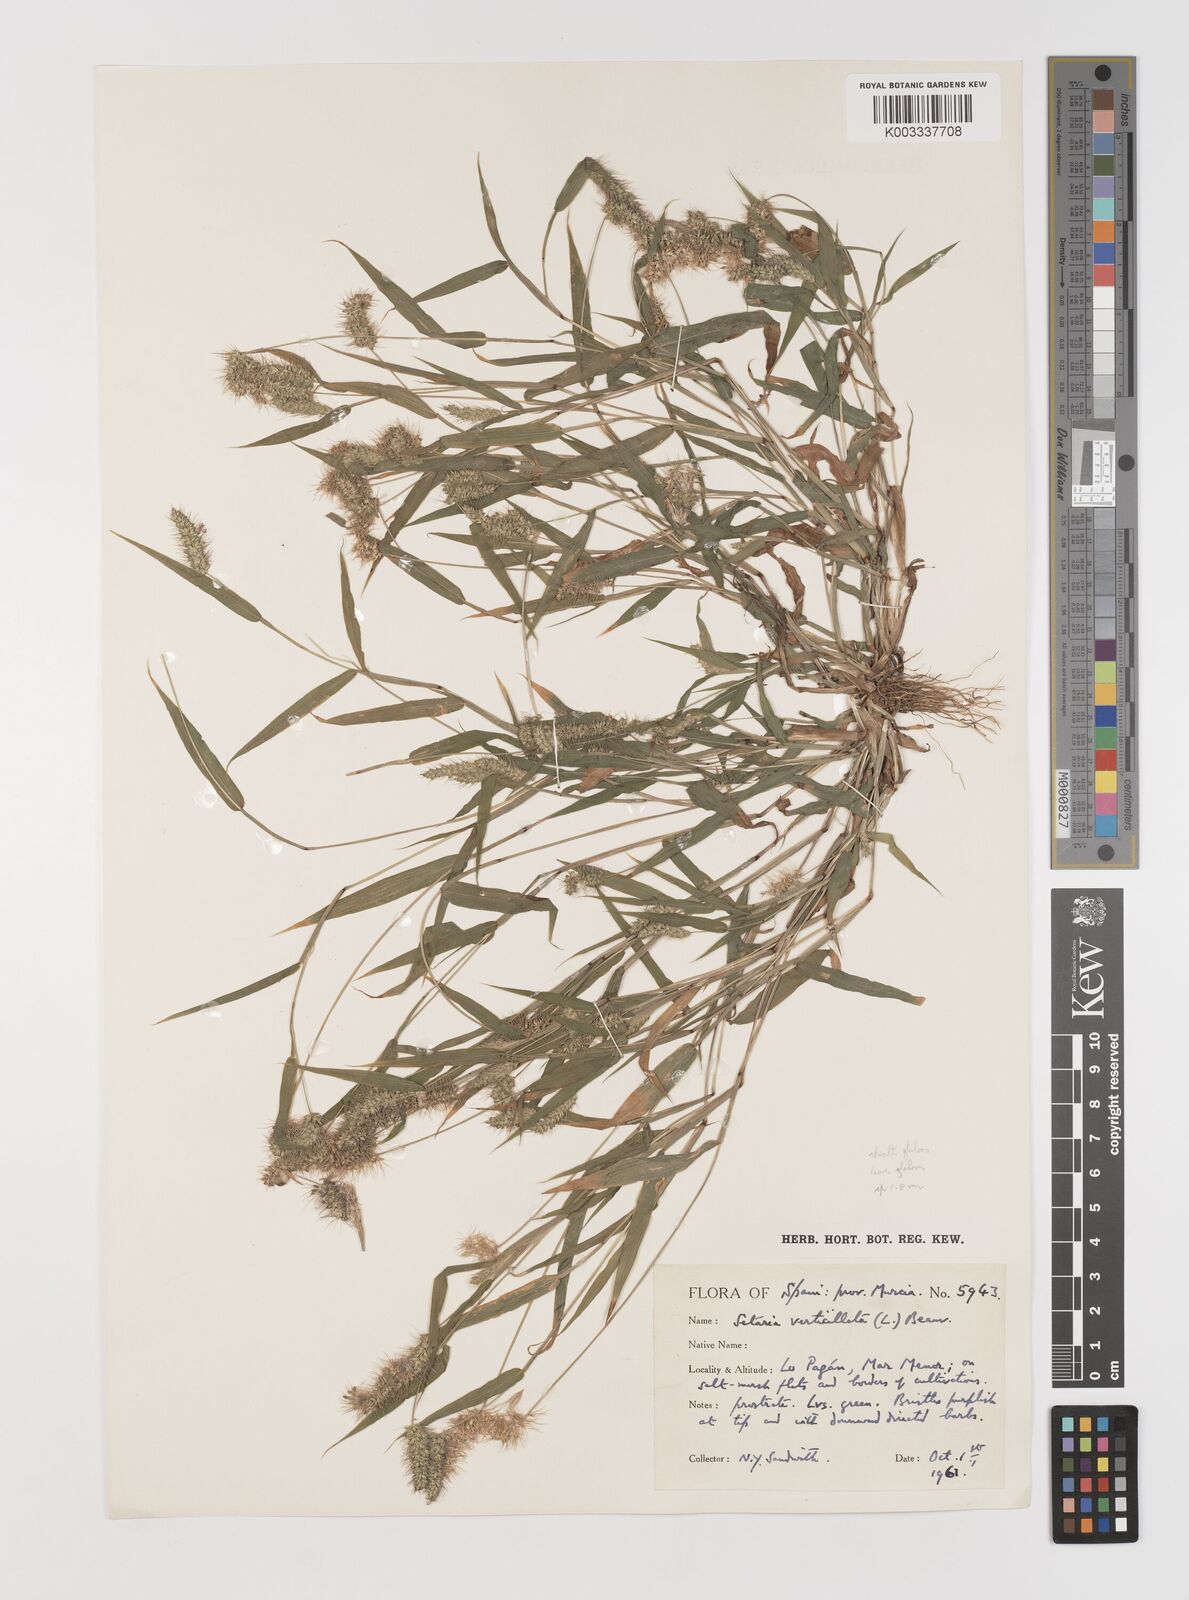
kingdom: Plantae
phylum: Tracheophyta
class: Liliopsida
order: Poales
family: Poaceae
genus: Setaria
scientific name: Setaria verticillata
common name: Hooked bristlegrass
